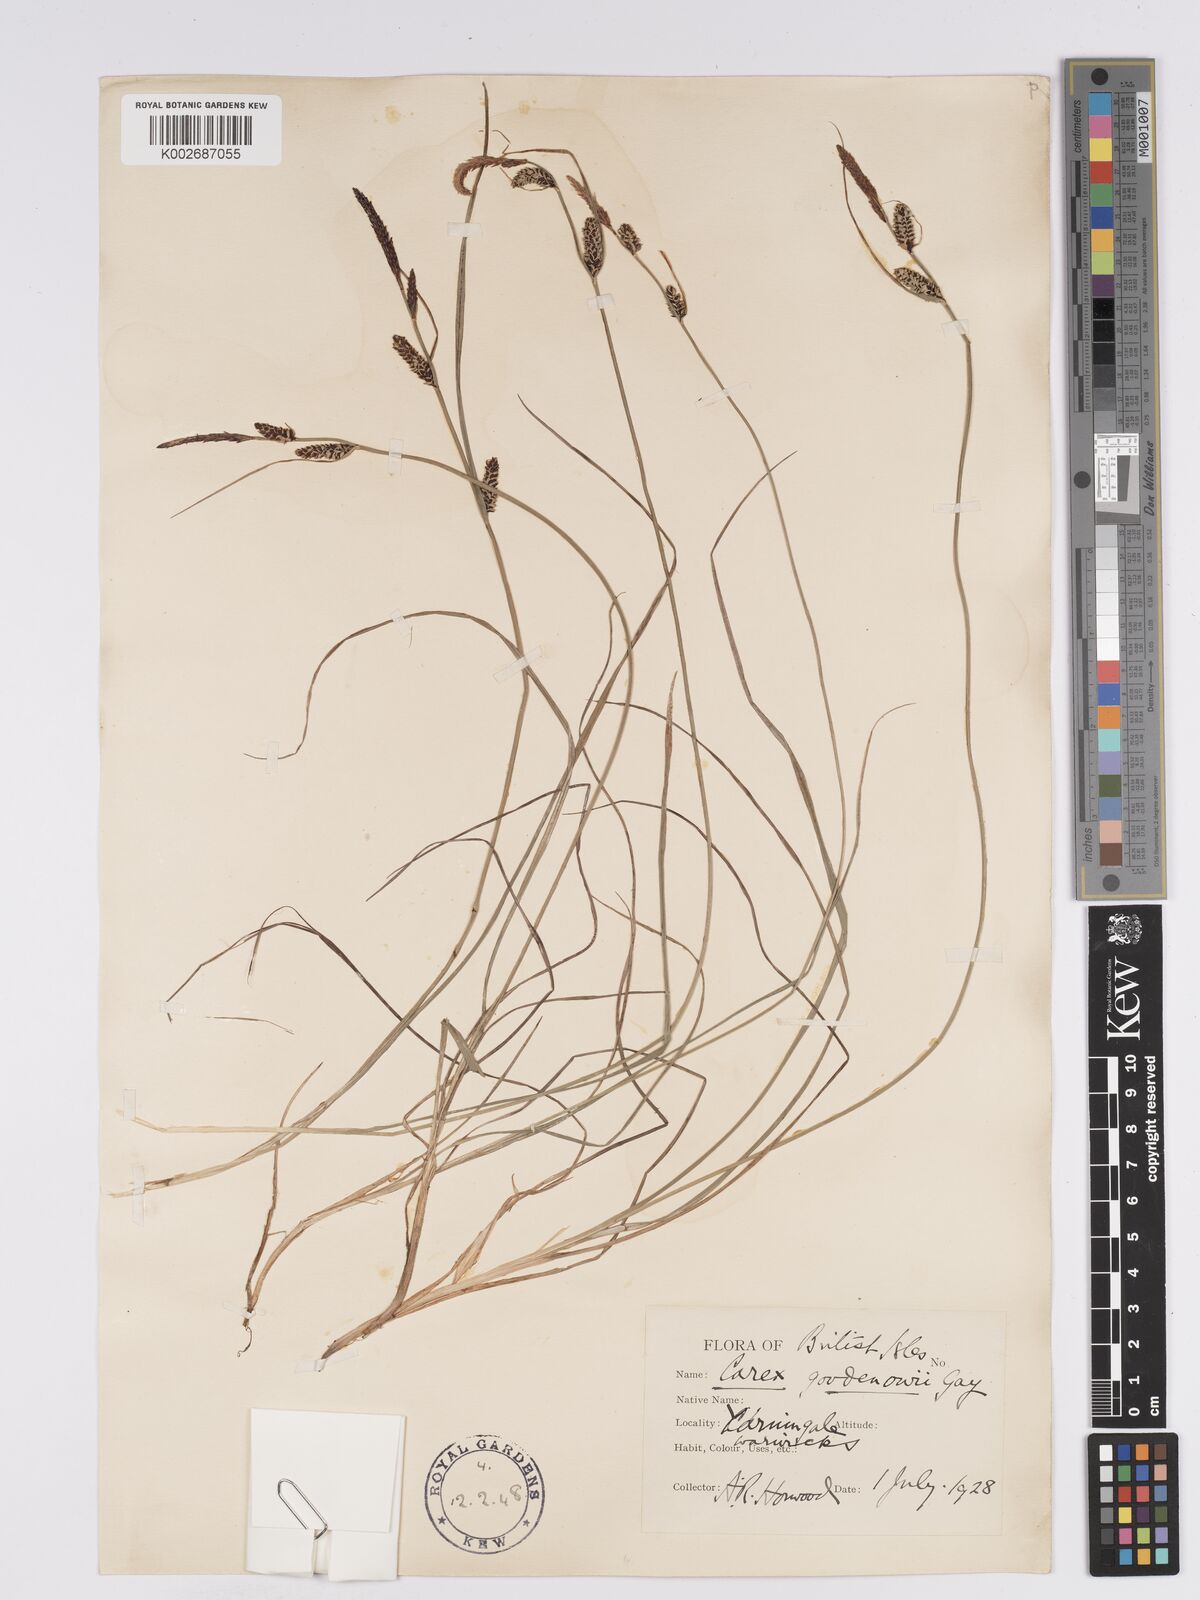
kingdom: Plantae
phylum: Tracheophyta
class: Liliopsida
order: Poales
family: Cyperaceae
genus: Carex
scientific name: Carex nigra
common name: Common sedge
